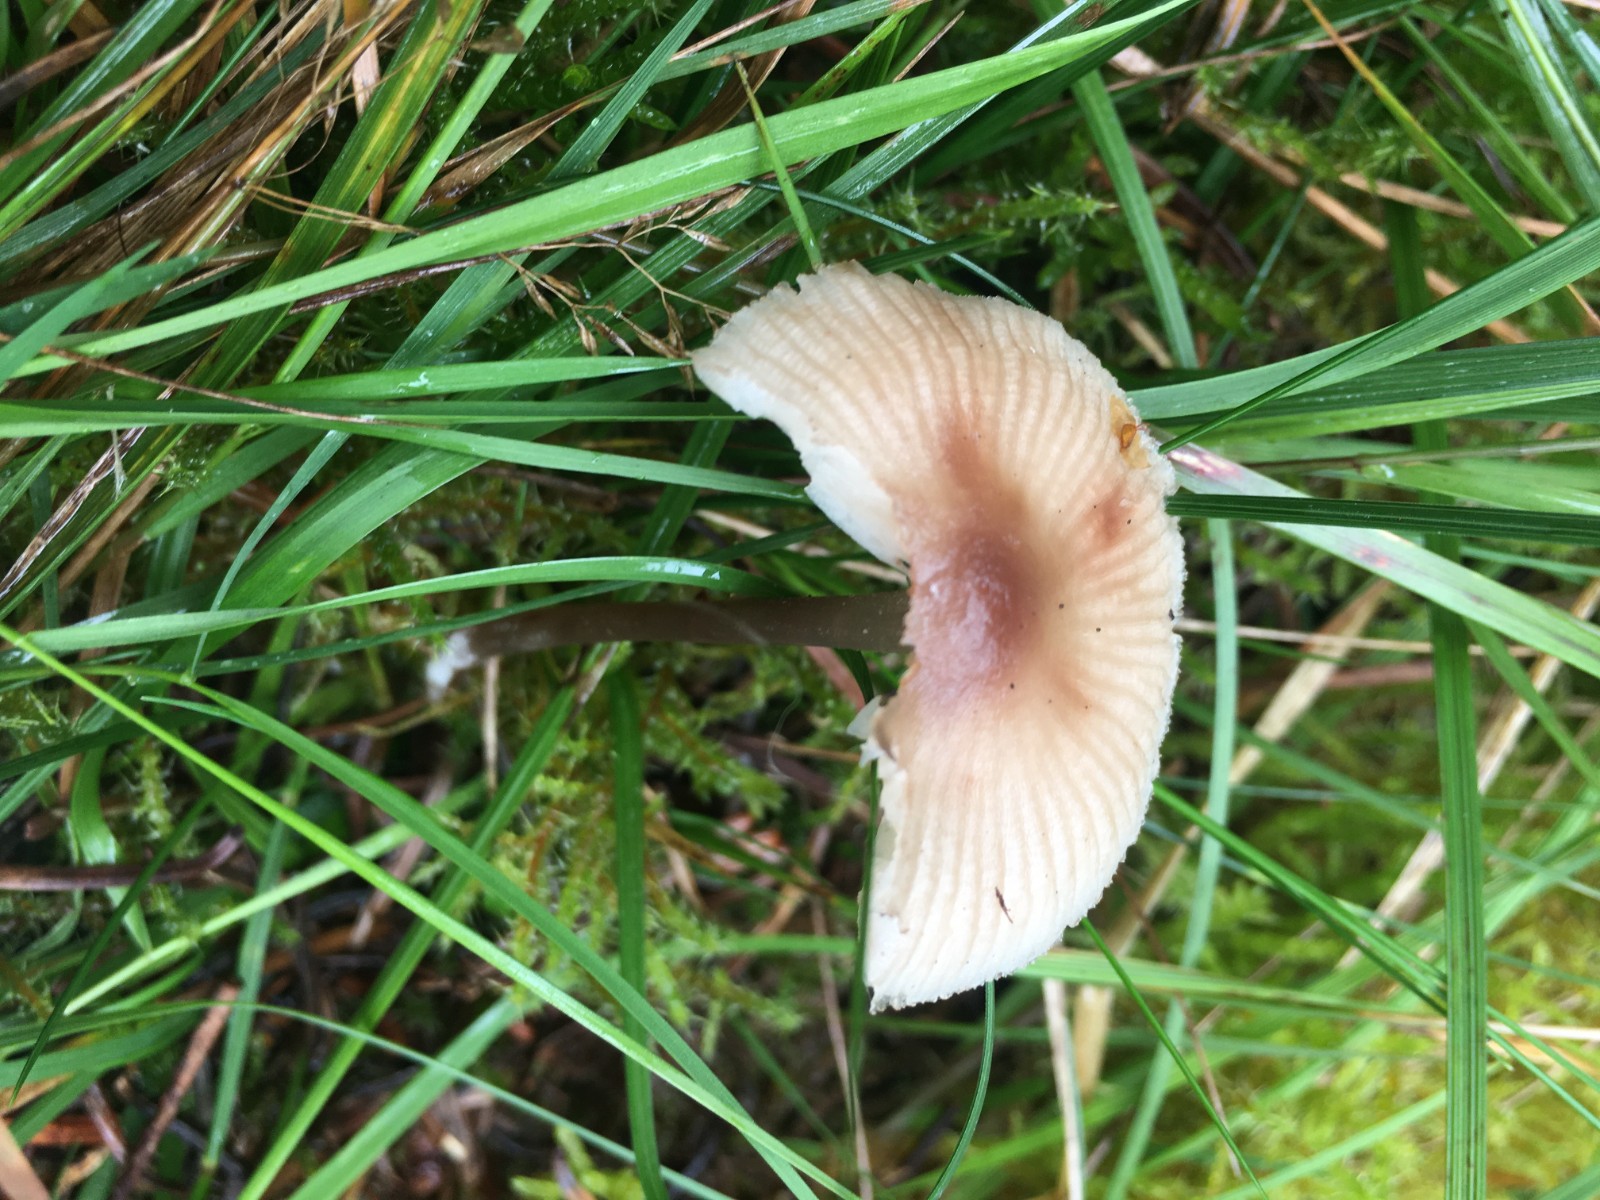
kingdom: Fungi
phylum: Basidiomycota
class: Agaricomycetes
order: Agaricales
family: Mycenaceae
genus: Mycena
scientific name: Mycena zephirus
